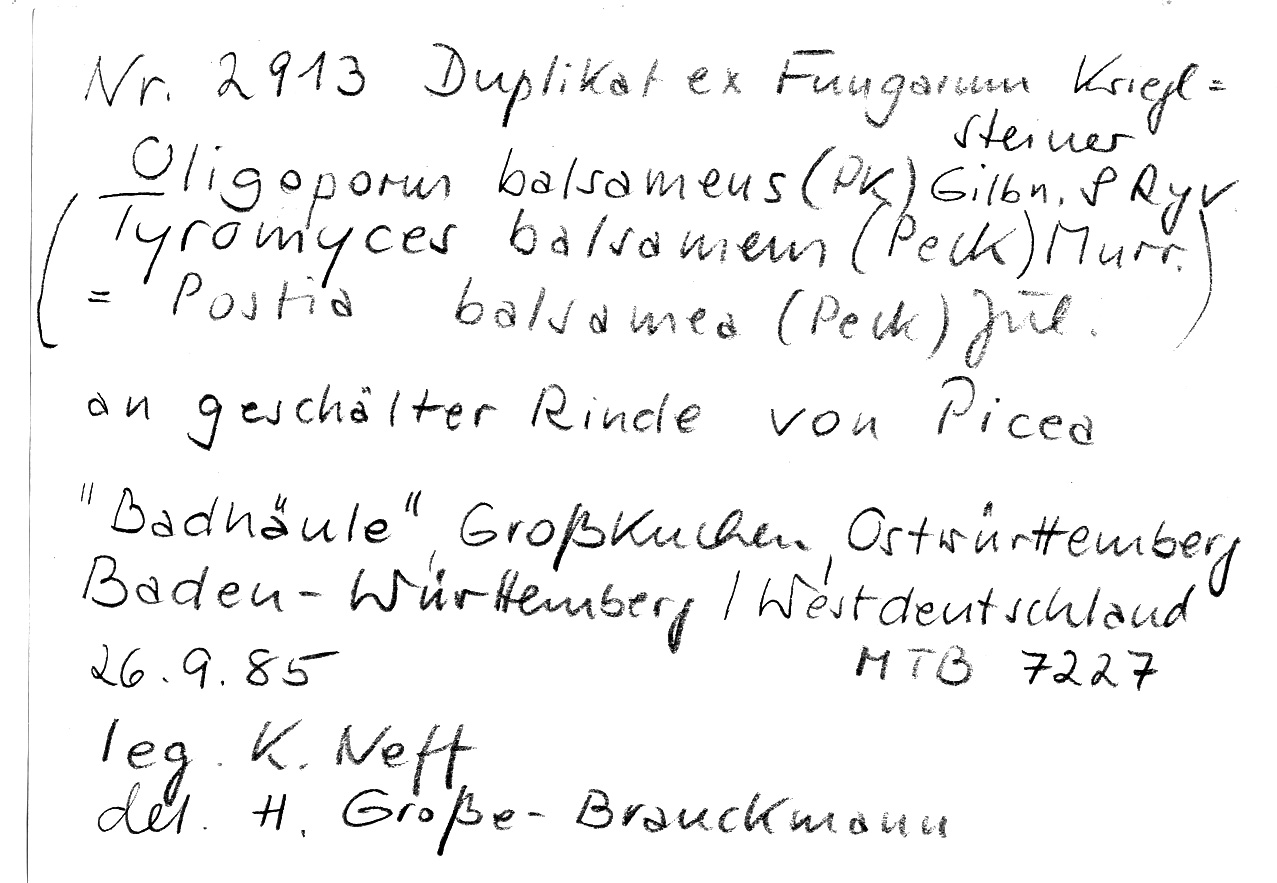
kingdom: Fungi
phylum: Basidiomycota
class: Agaricomycetes
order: Polyporales
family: Dacryobolaceae
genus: Postia
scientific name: Postia balsamea
